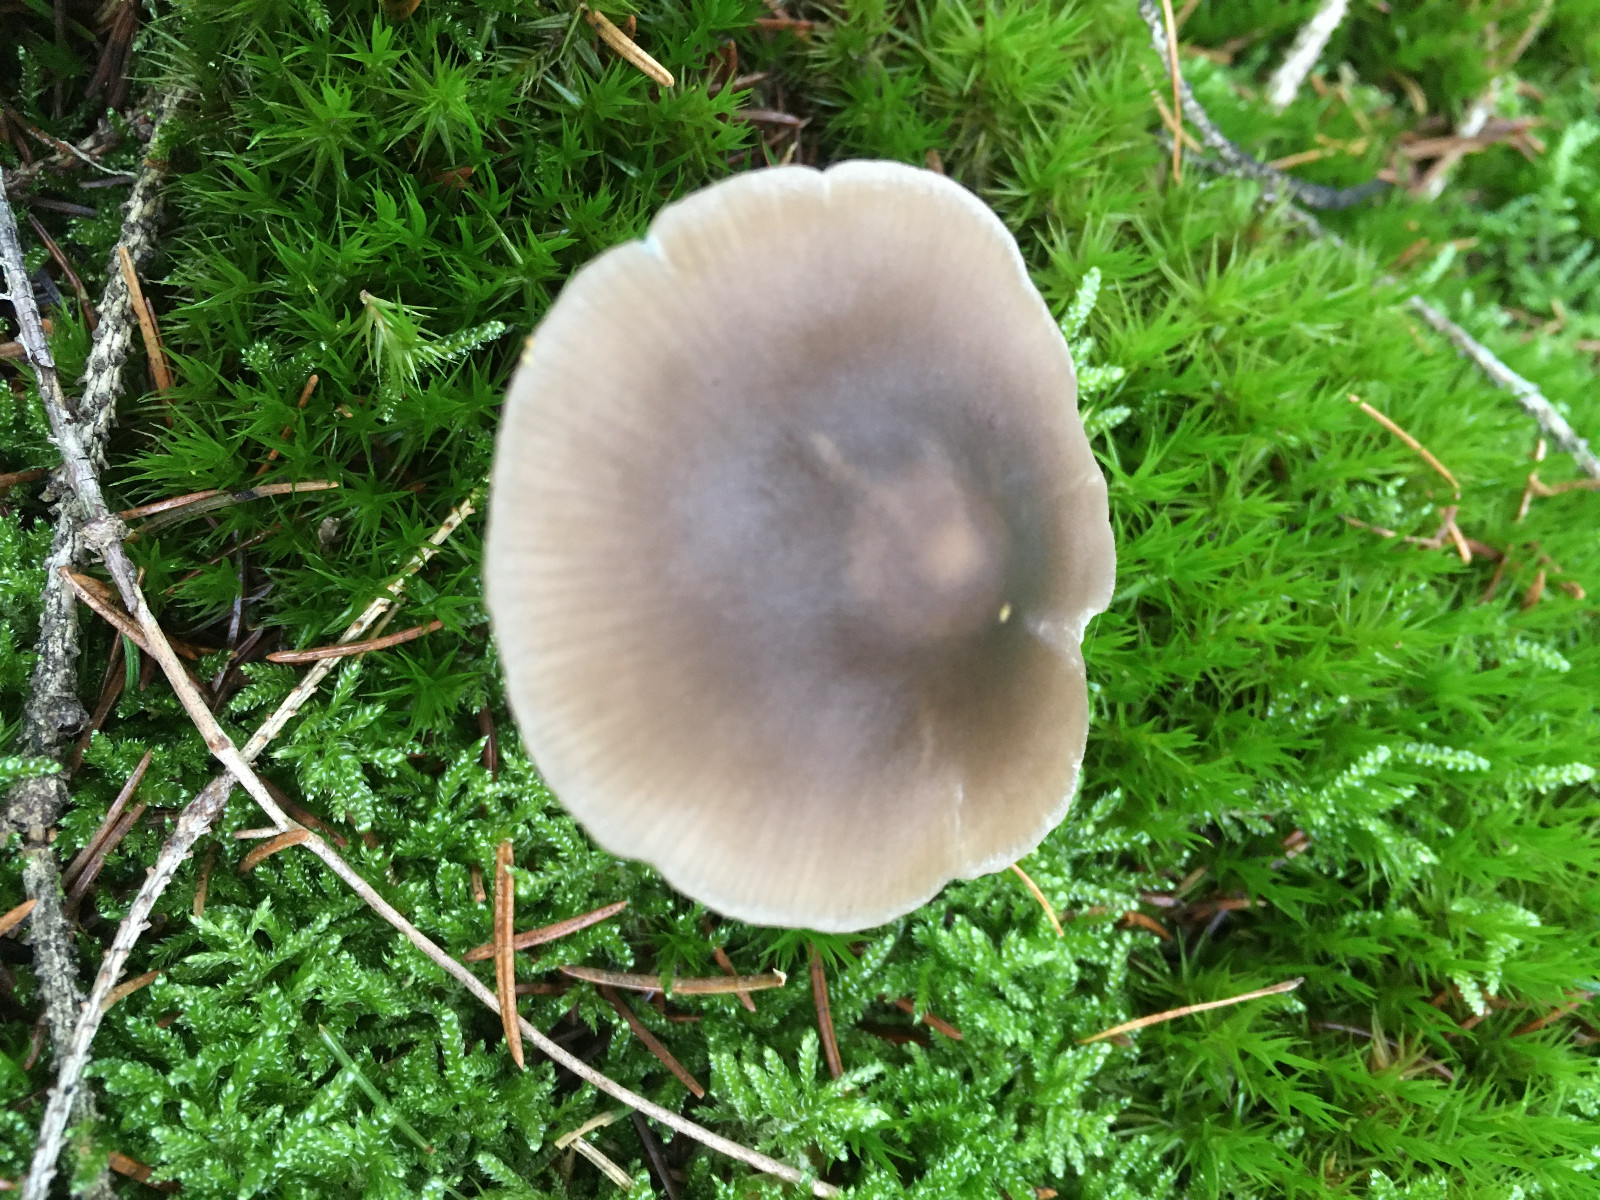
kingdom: Fungi
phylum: Basidiomycota
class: Agaricomycetes
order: Agaricales
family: Entolomataceae
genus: Entocybe
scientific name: Entocybe turbida
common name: plantage-rødblad
